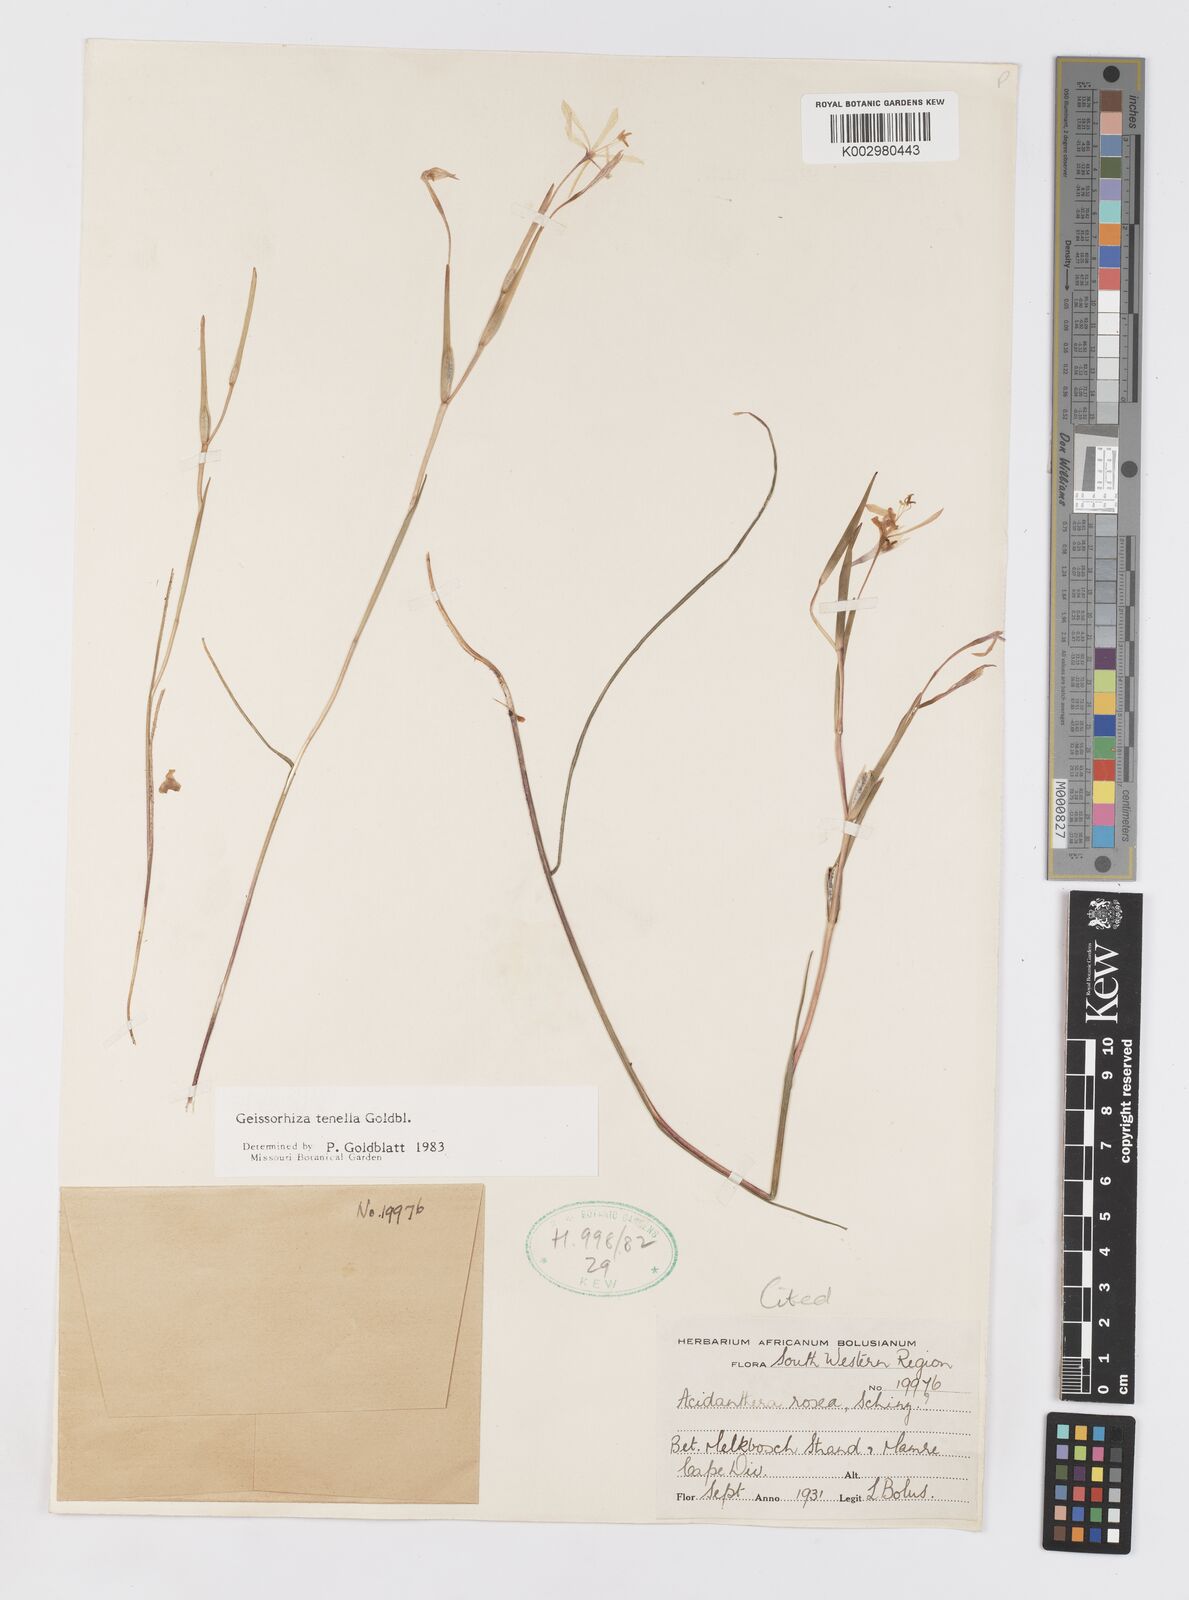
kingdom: Plantae
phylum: Tracheophyta
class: Liliopsida
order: Asparagales
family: Iridaceae
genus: Geissorhiza
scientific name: Geissorhiza tenella
